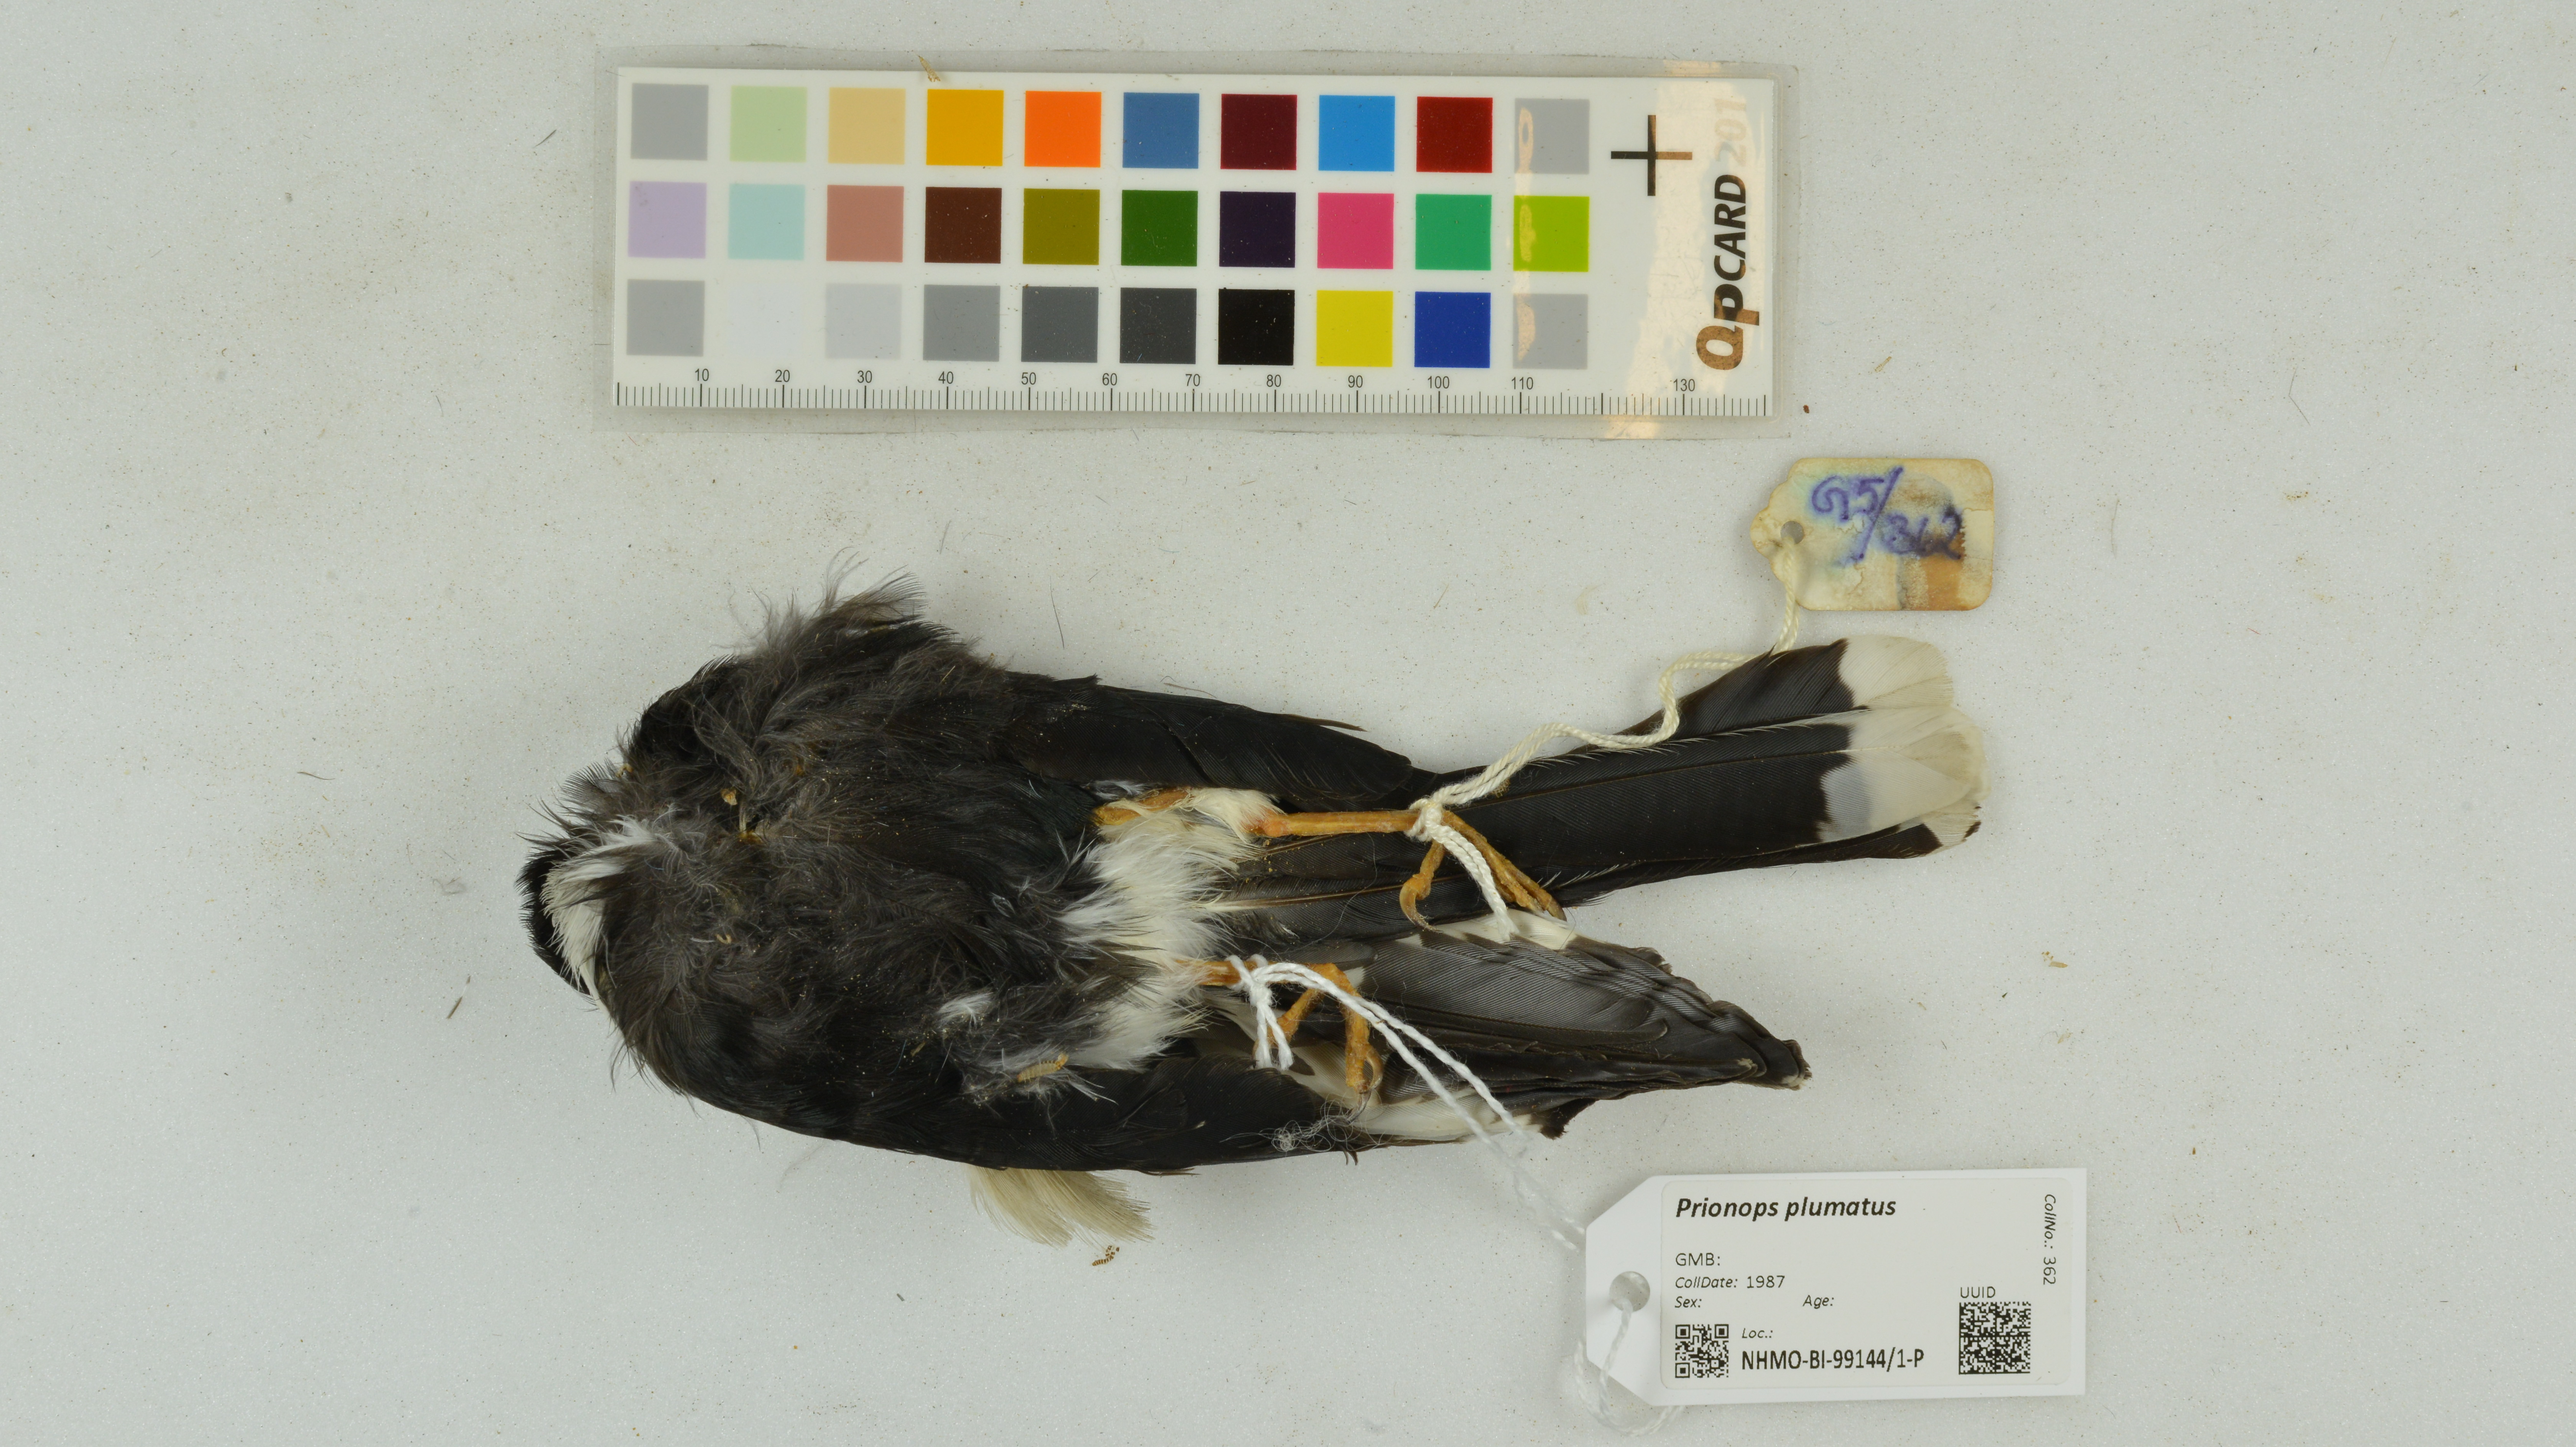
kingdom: Animalia
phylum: Chordata
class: Aves
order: Passeriformes
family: Prionopidae
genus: Prionops
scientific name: Prionops plumatus
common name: White-crested helmetshrike
